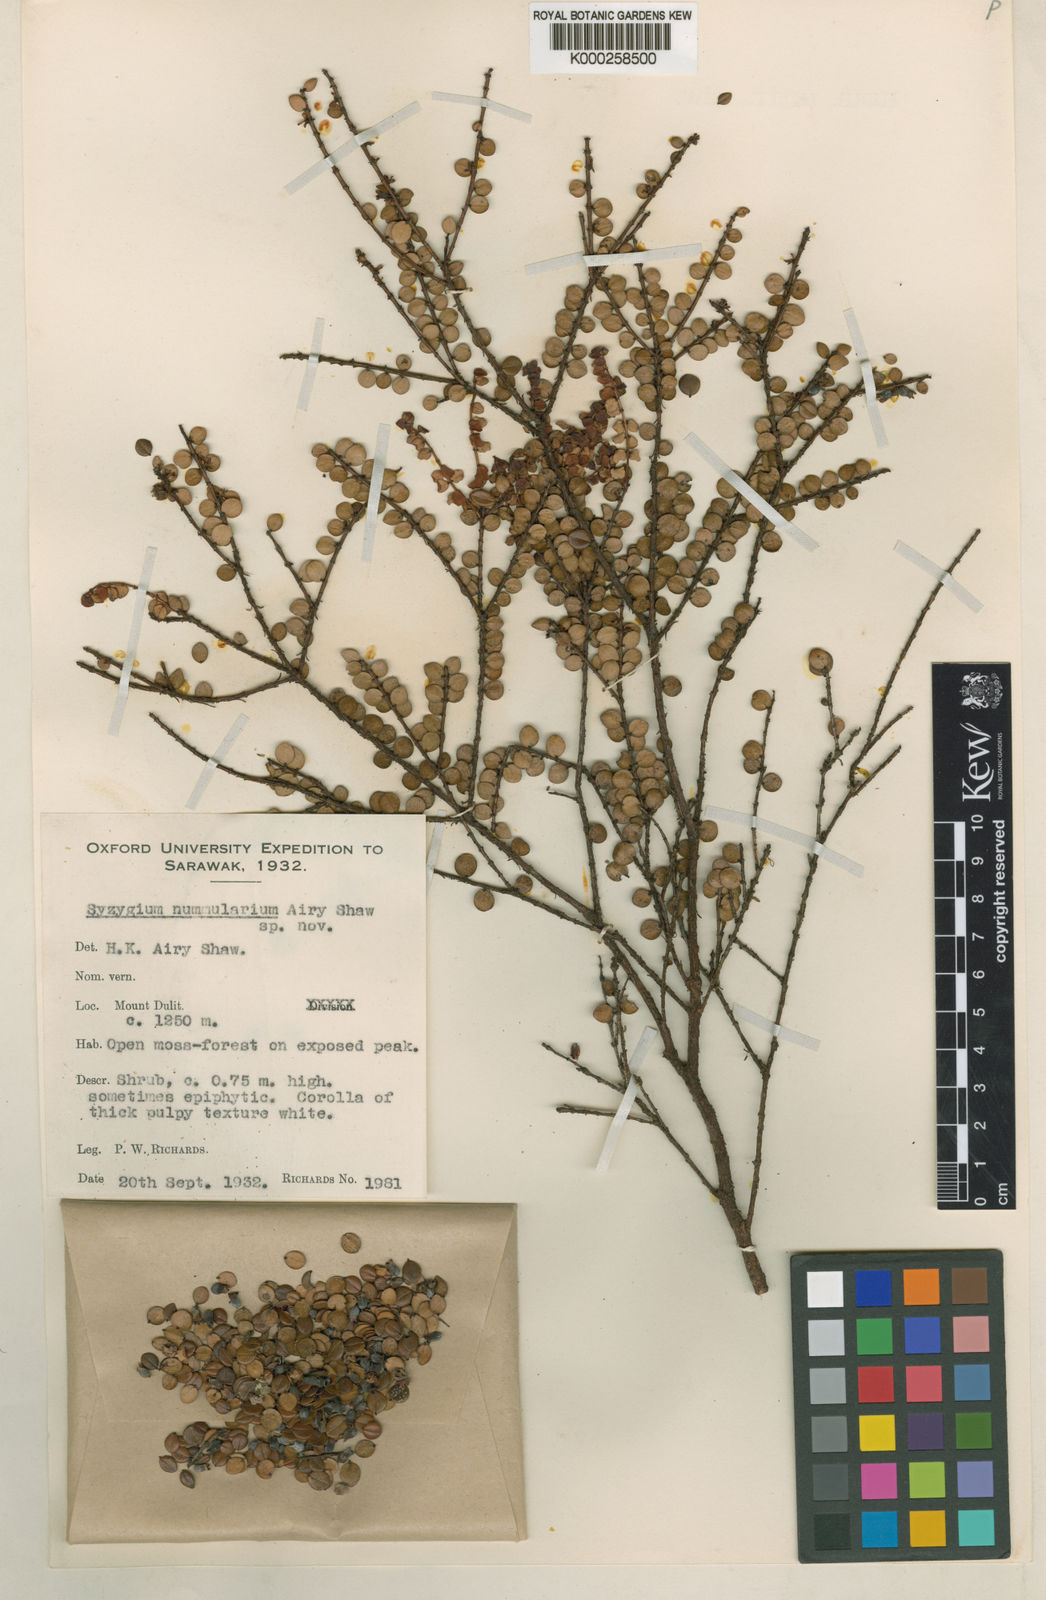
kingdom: Plantae
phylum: Tracheophyta
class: Magnoliopsida
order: Myrtales
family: Myrtaceae
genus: Syzygium
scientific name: Syzygium nummularium
